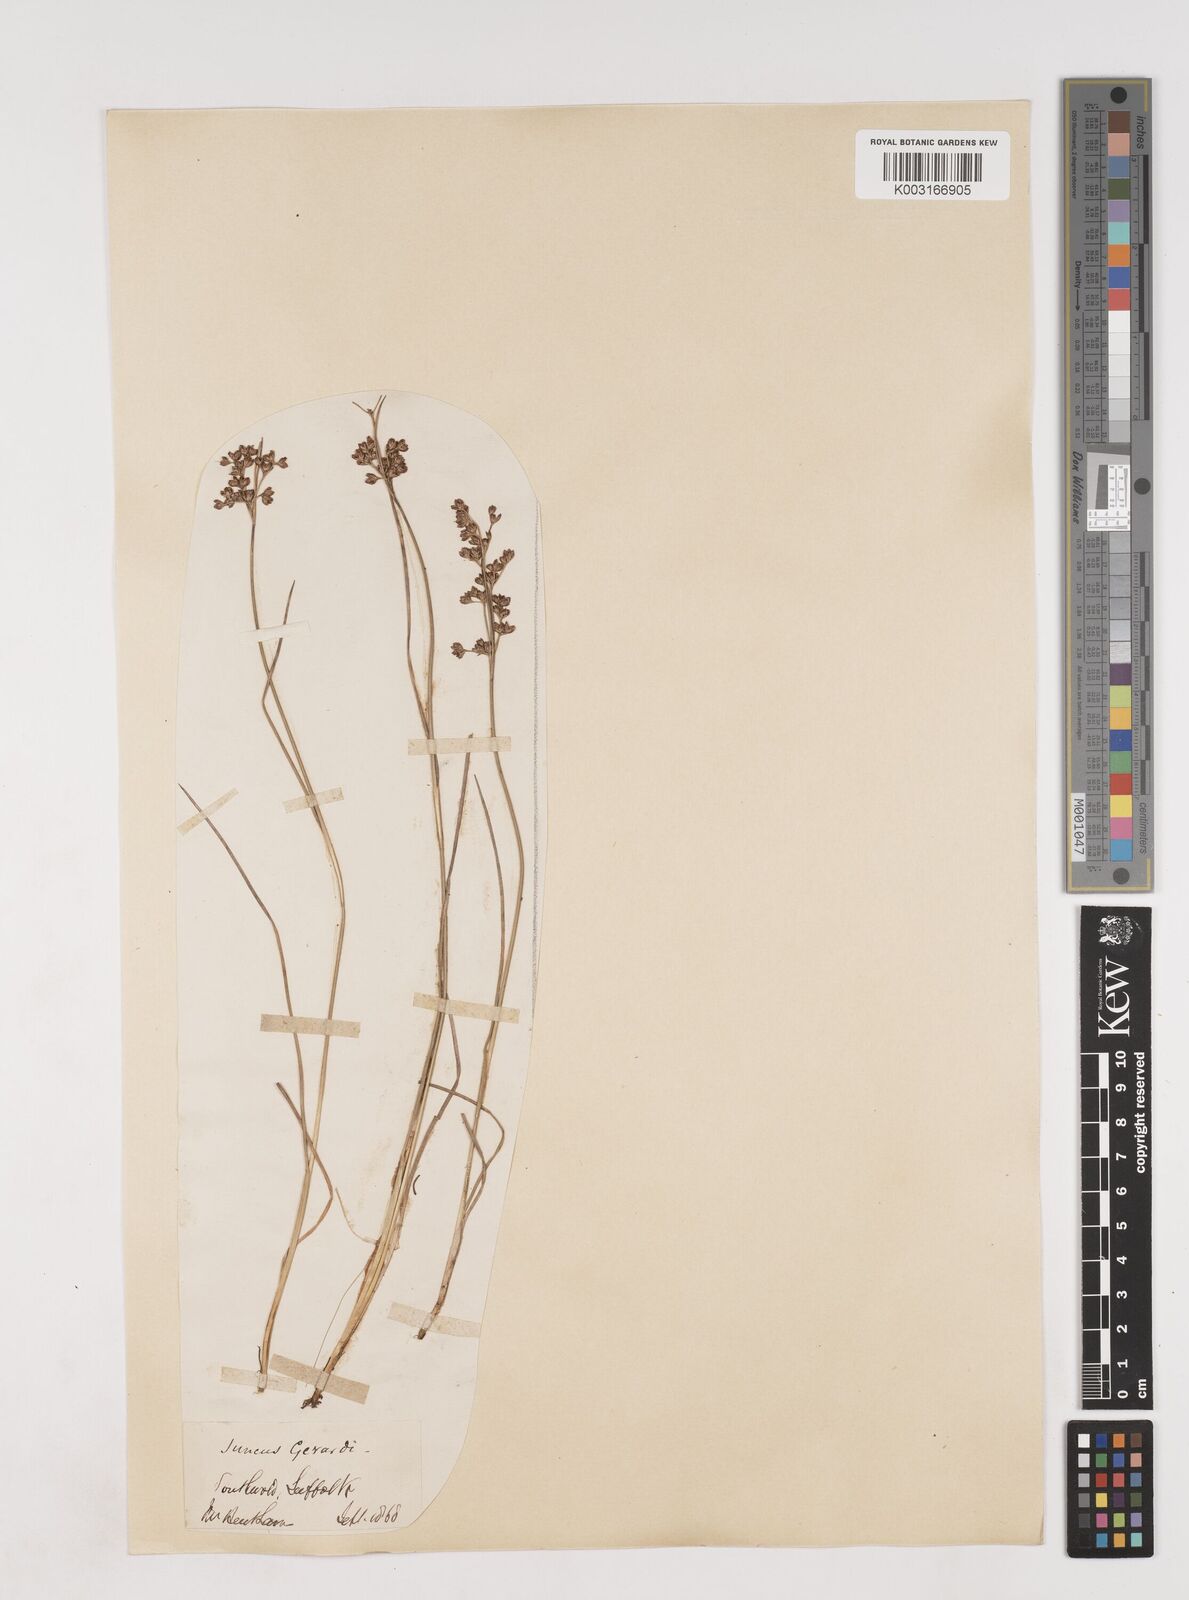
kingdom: Plantae
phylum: Tracheophyta
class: Liliopsida
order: Poales
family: Juncaceae
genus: Juncus
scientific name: Juncus gerardi
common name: Saltmarsh rush
